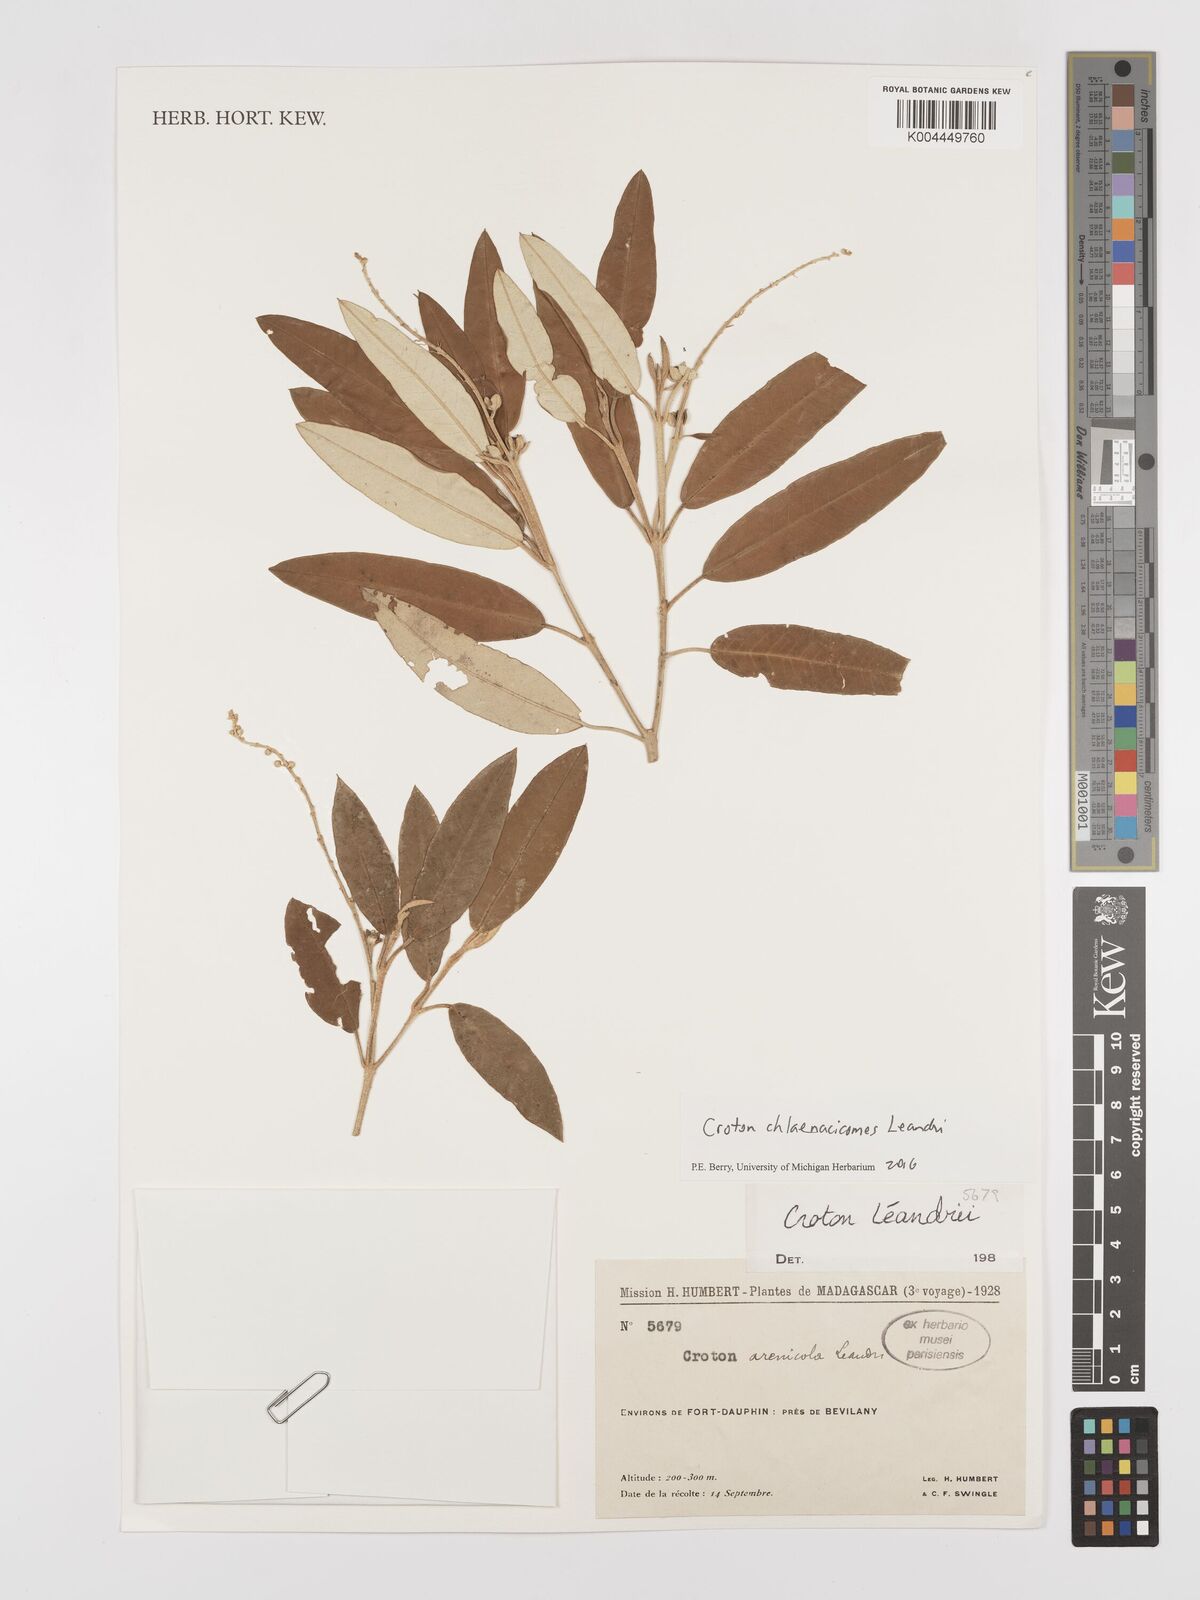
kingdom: Plantae
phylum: Tracheophyta
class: Magnoliopsida
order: Malpighiales
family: Euphorbiaceae
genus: Croton
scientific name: Croton chlaenacicomes
